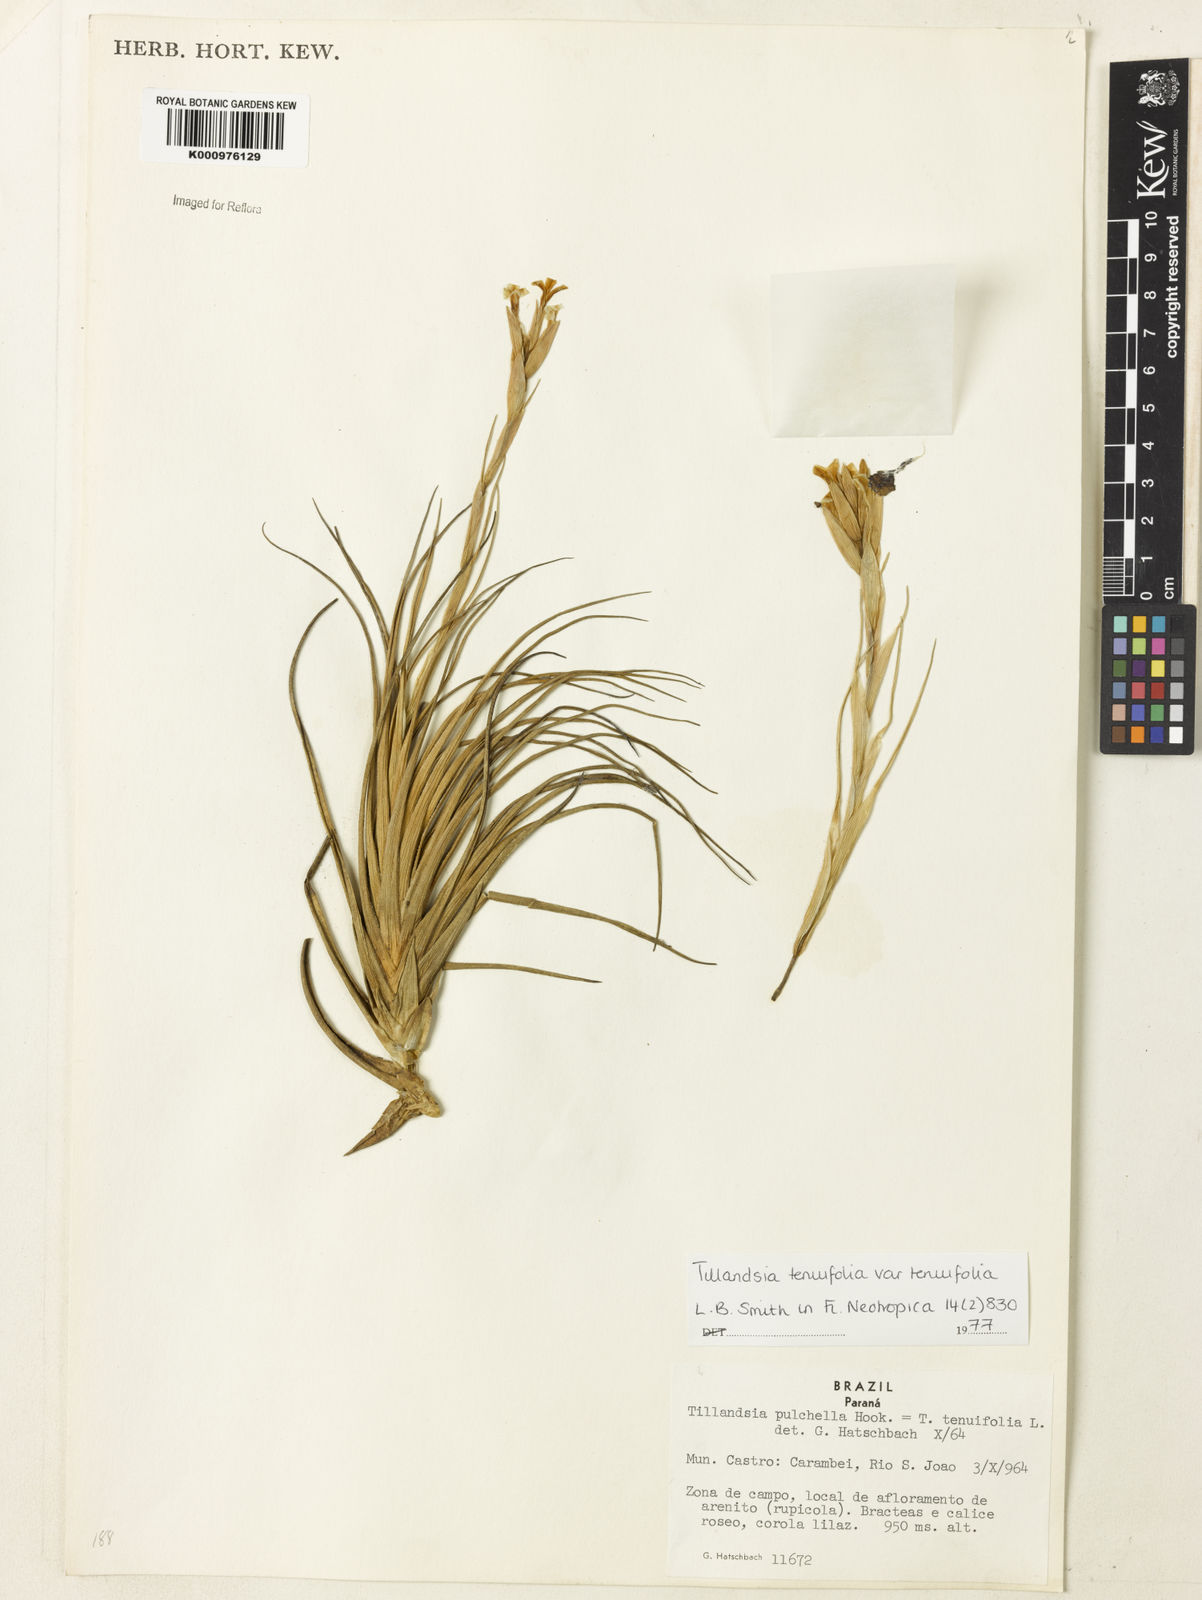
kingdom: Plantae
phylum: Tracheophyta
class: Liliopsida
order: Poales
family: Bromeliaceae
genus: Tillandsia
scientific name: Tillandsia tenuifolia
